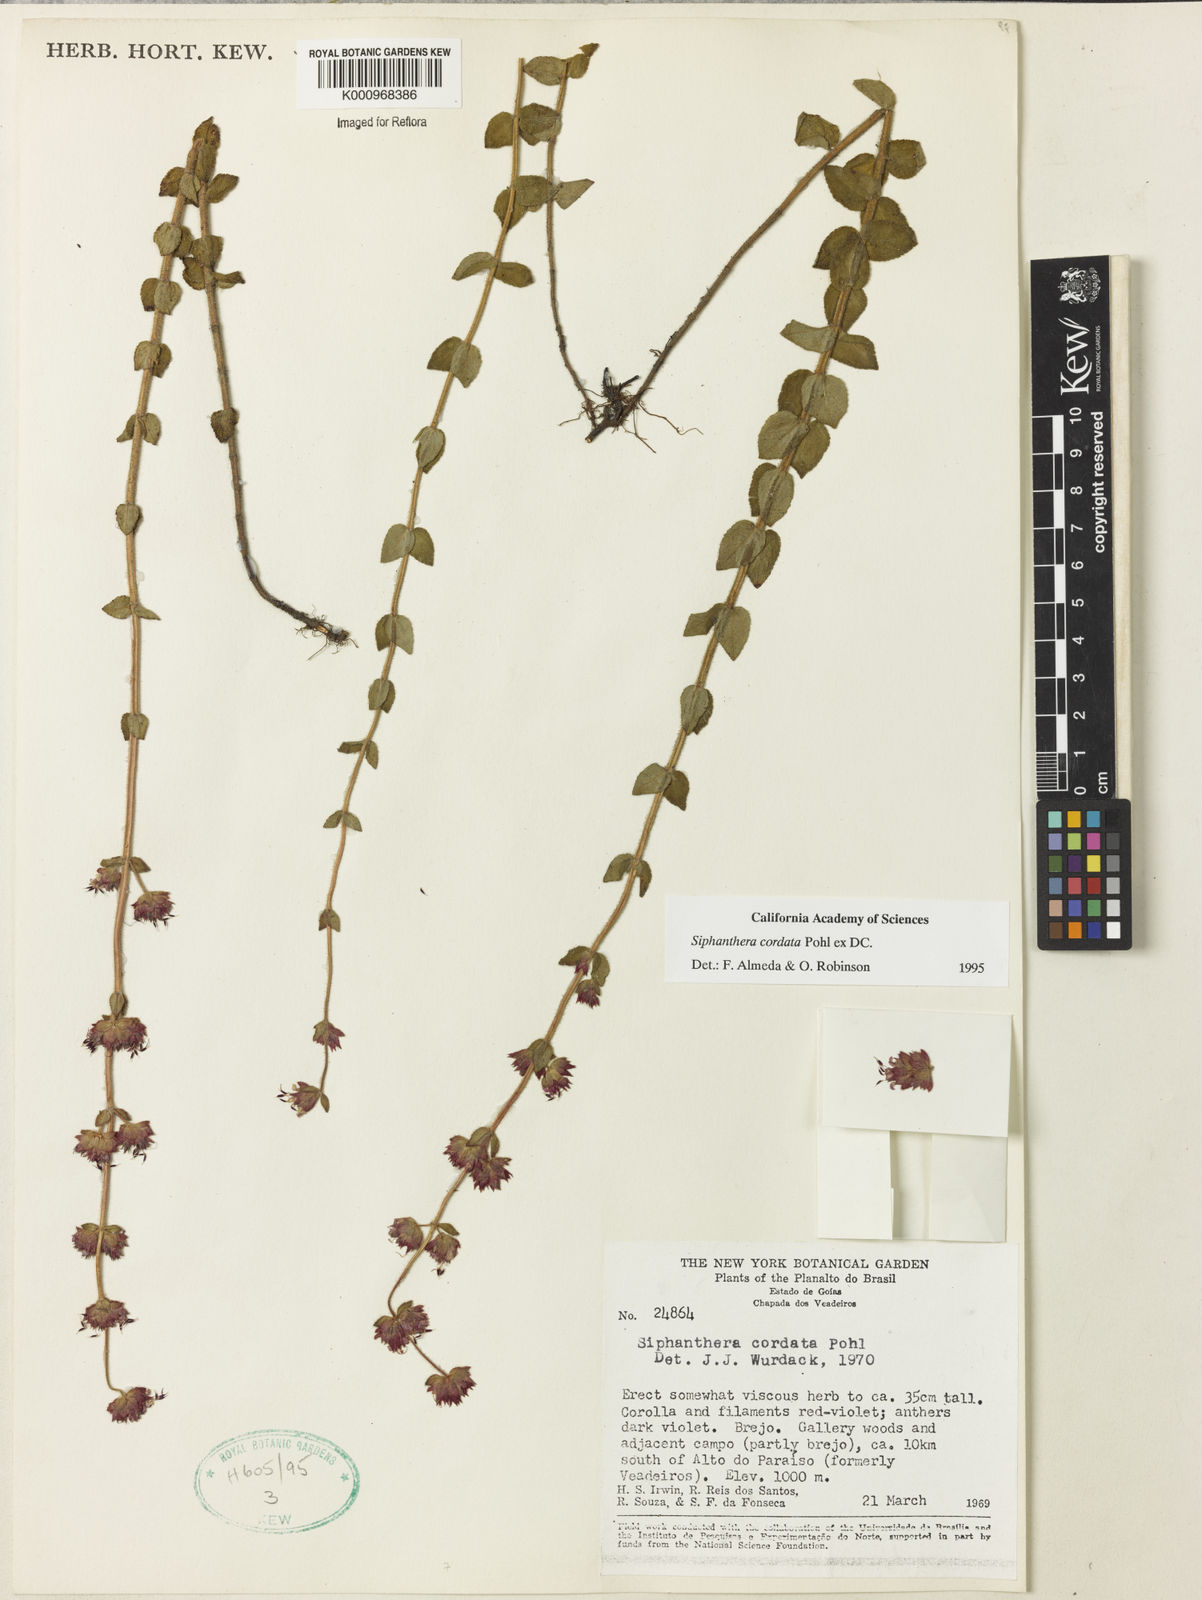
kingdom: Plantae
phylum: Tracheophyta
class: Magnoliopsida
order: Myrtales
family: Melastomataceae
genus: Siphanthera
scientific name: Siphanthera
